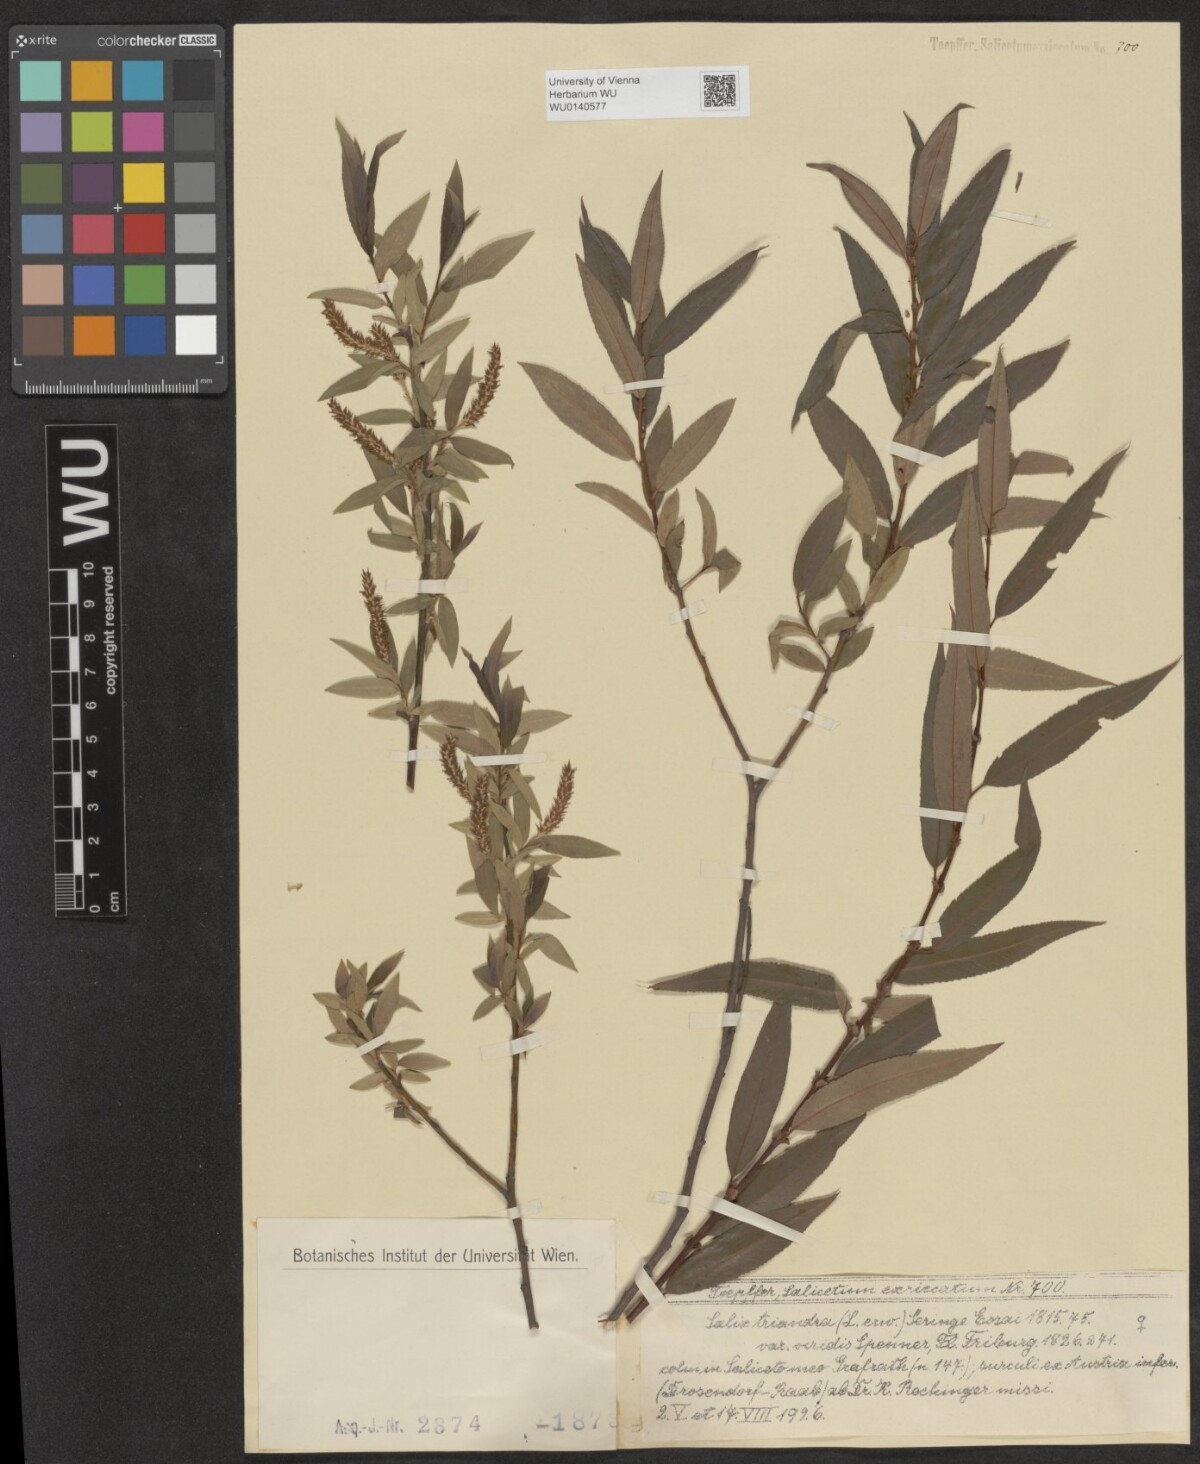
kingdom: Plantae
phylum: Tracheophyta
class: Magnoliopsida
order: Malpighiales
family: Salicaceae
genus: Salix
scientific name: Salix triandra
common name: Almond willow
